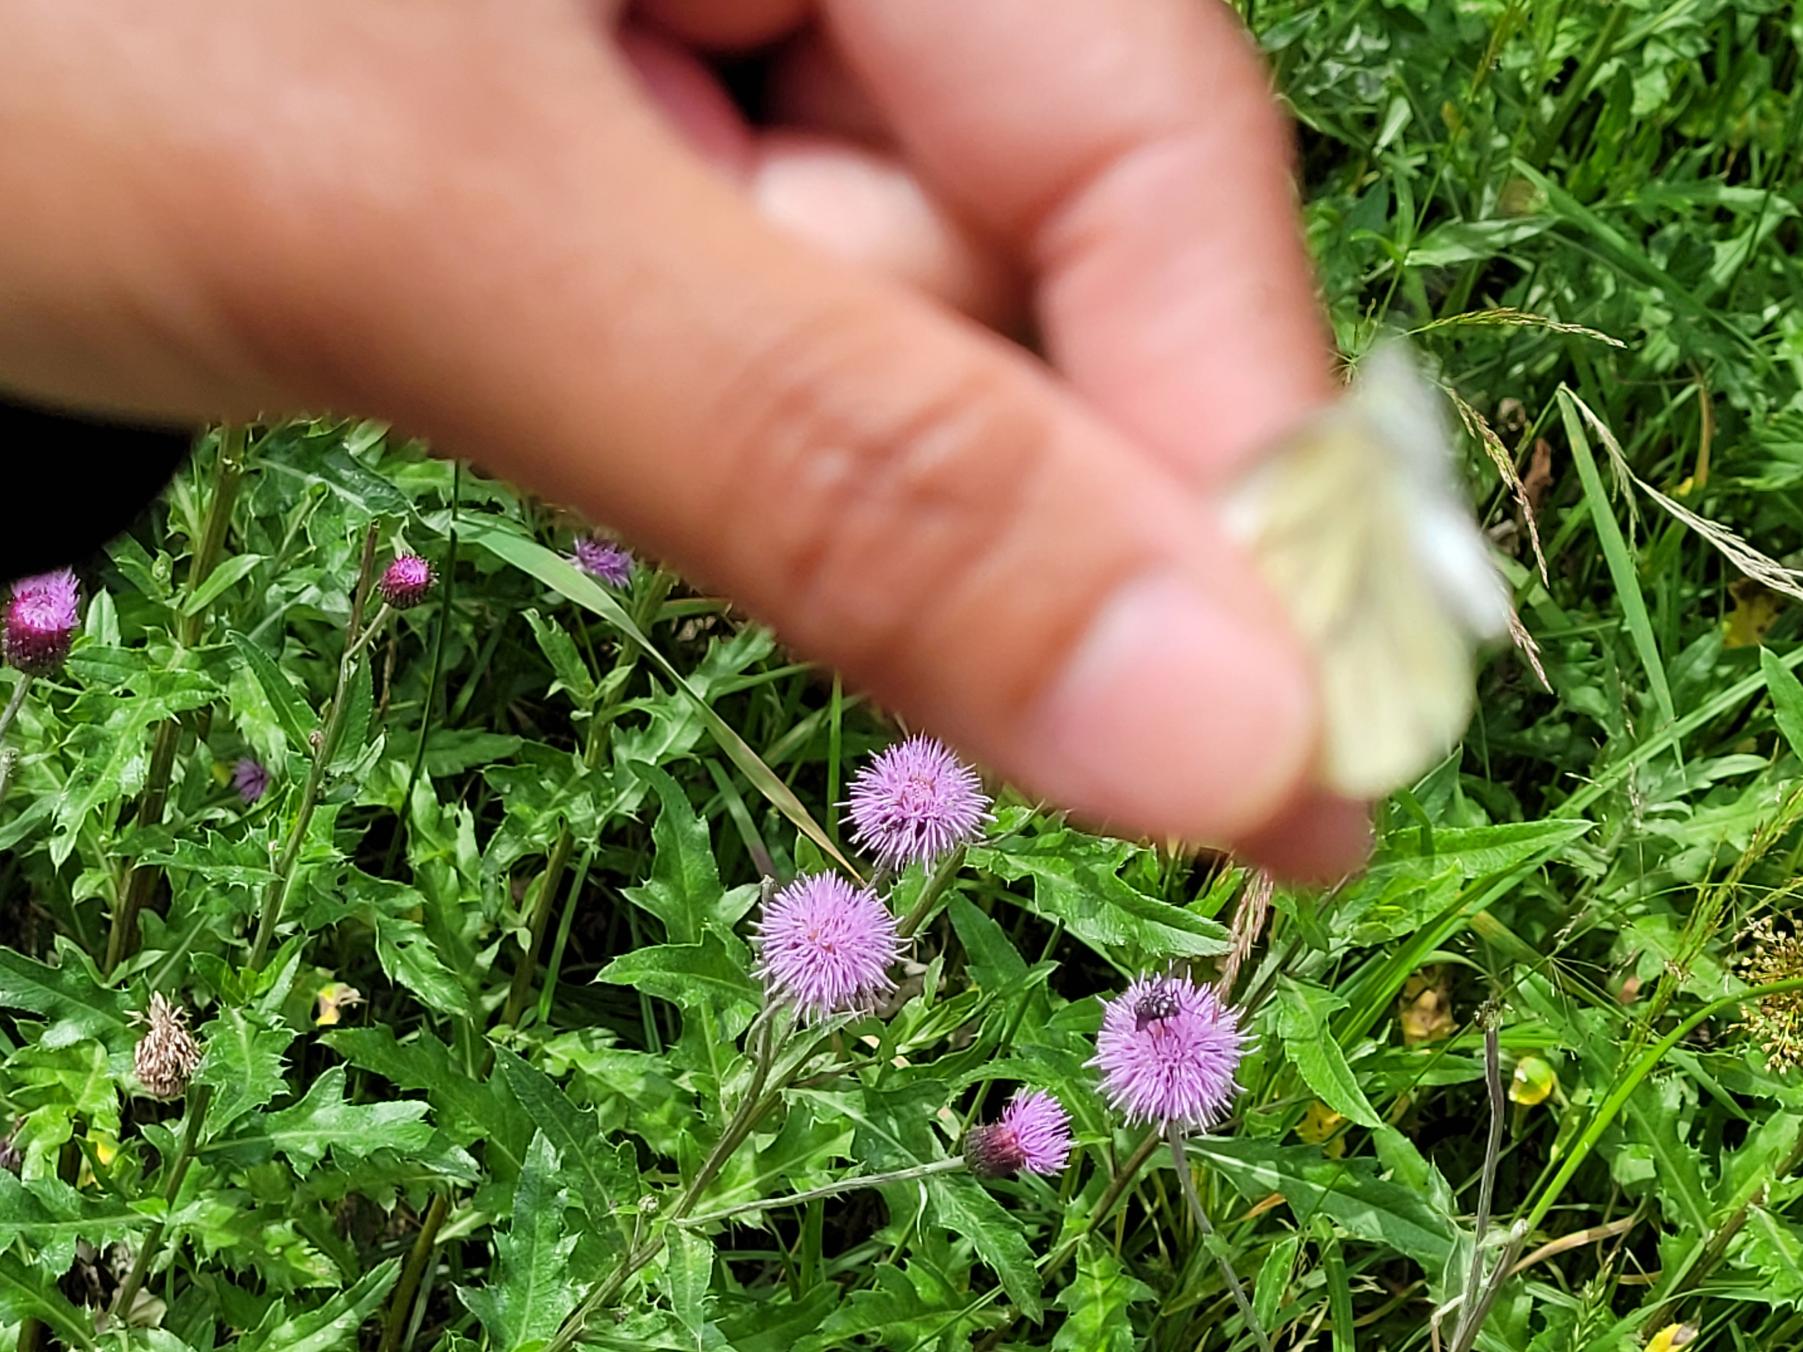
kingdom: Animalia
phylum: Arthropoda
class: Insecta
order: Lepidoptera
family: Pieridae
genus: Pieris
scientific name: Pieris napi
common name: Grønåret kålsommerfugl
